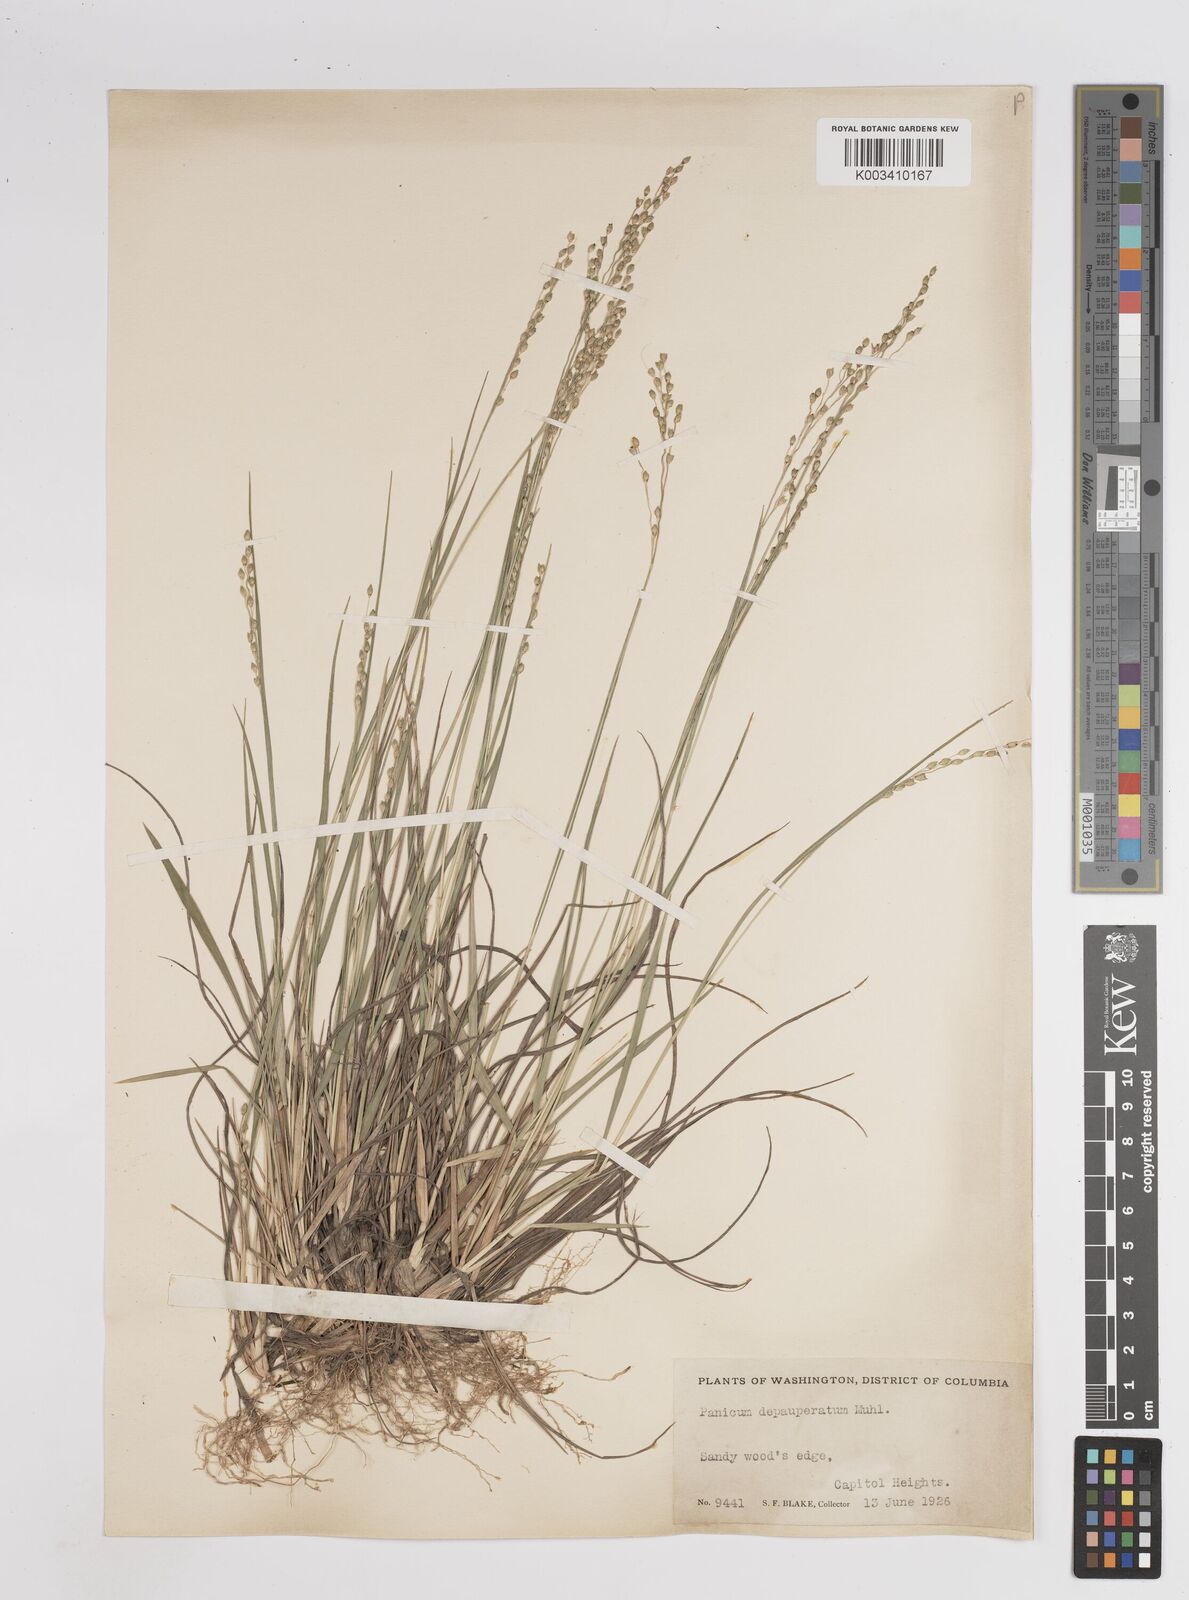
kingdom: Plantae
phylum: Tracheophyta
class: Liliopsida
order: Poales
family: Poaceae
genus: Dichanthelium
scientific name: Dichanthelium depauperatum
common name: Depauperate panicgrass
